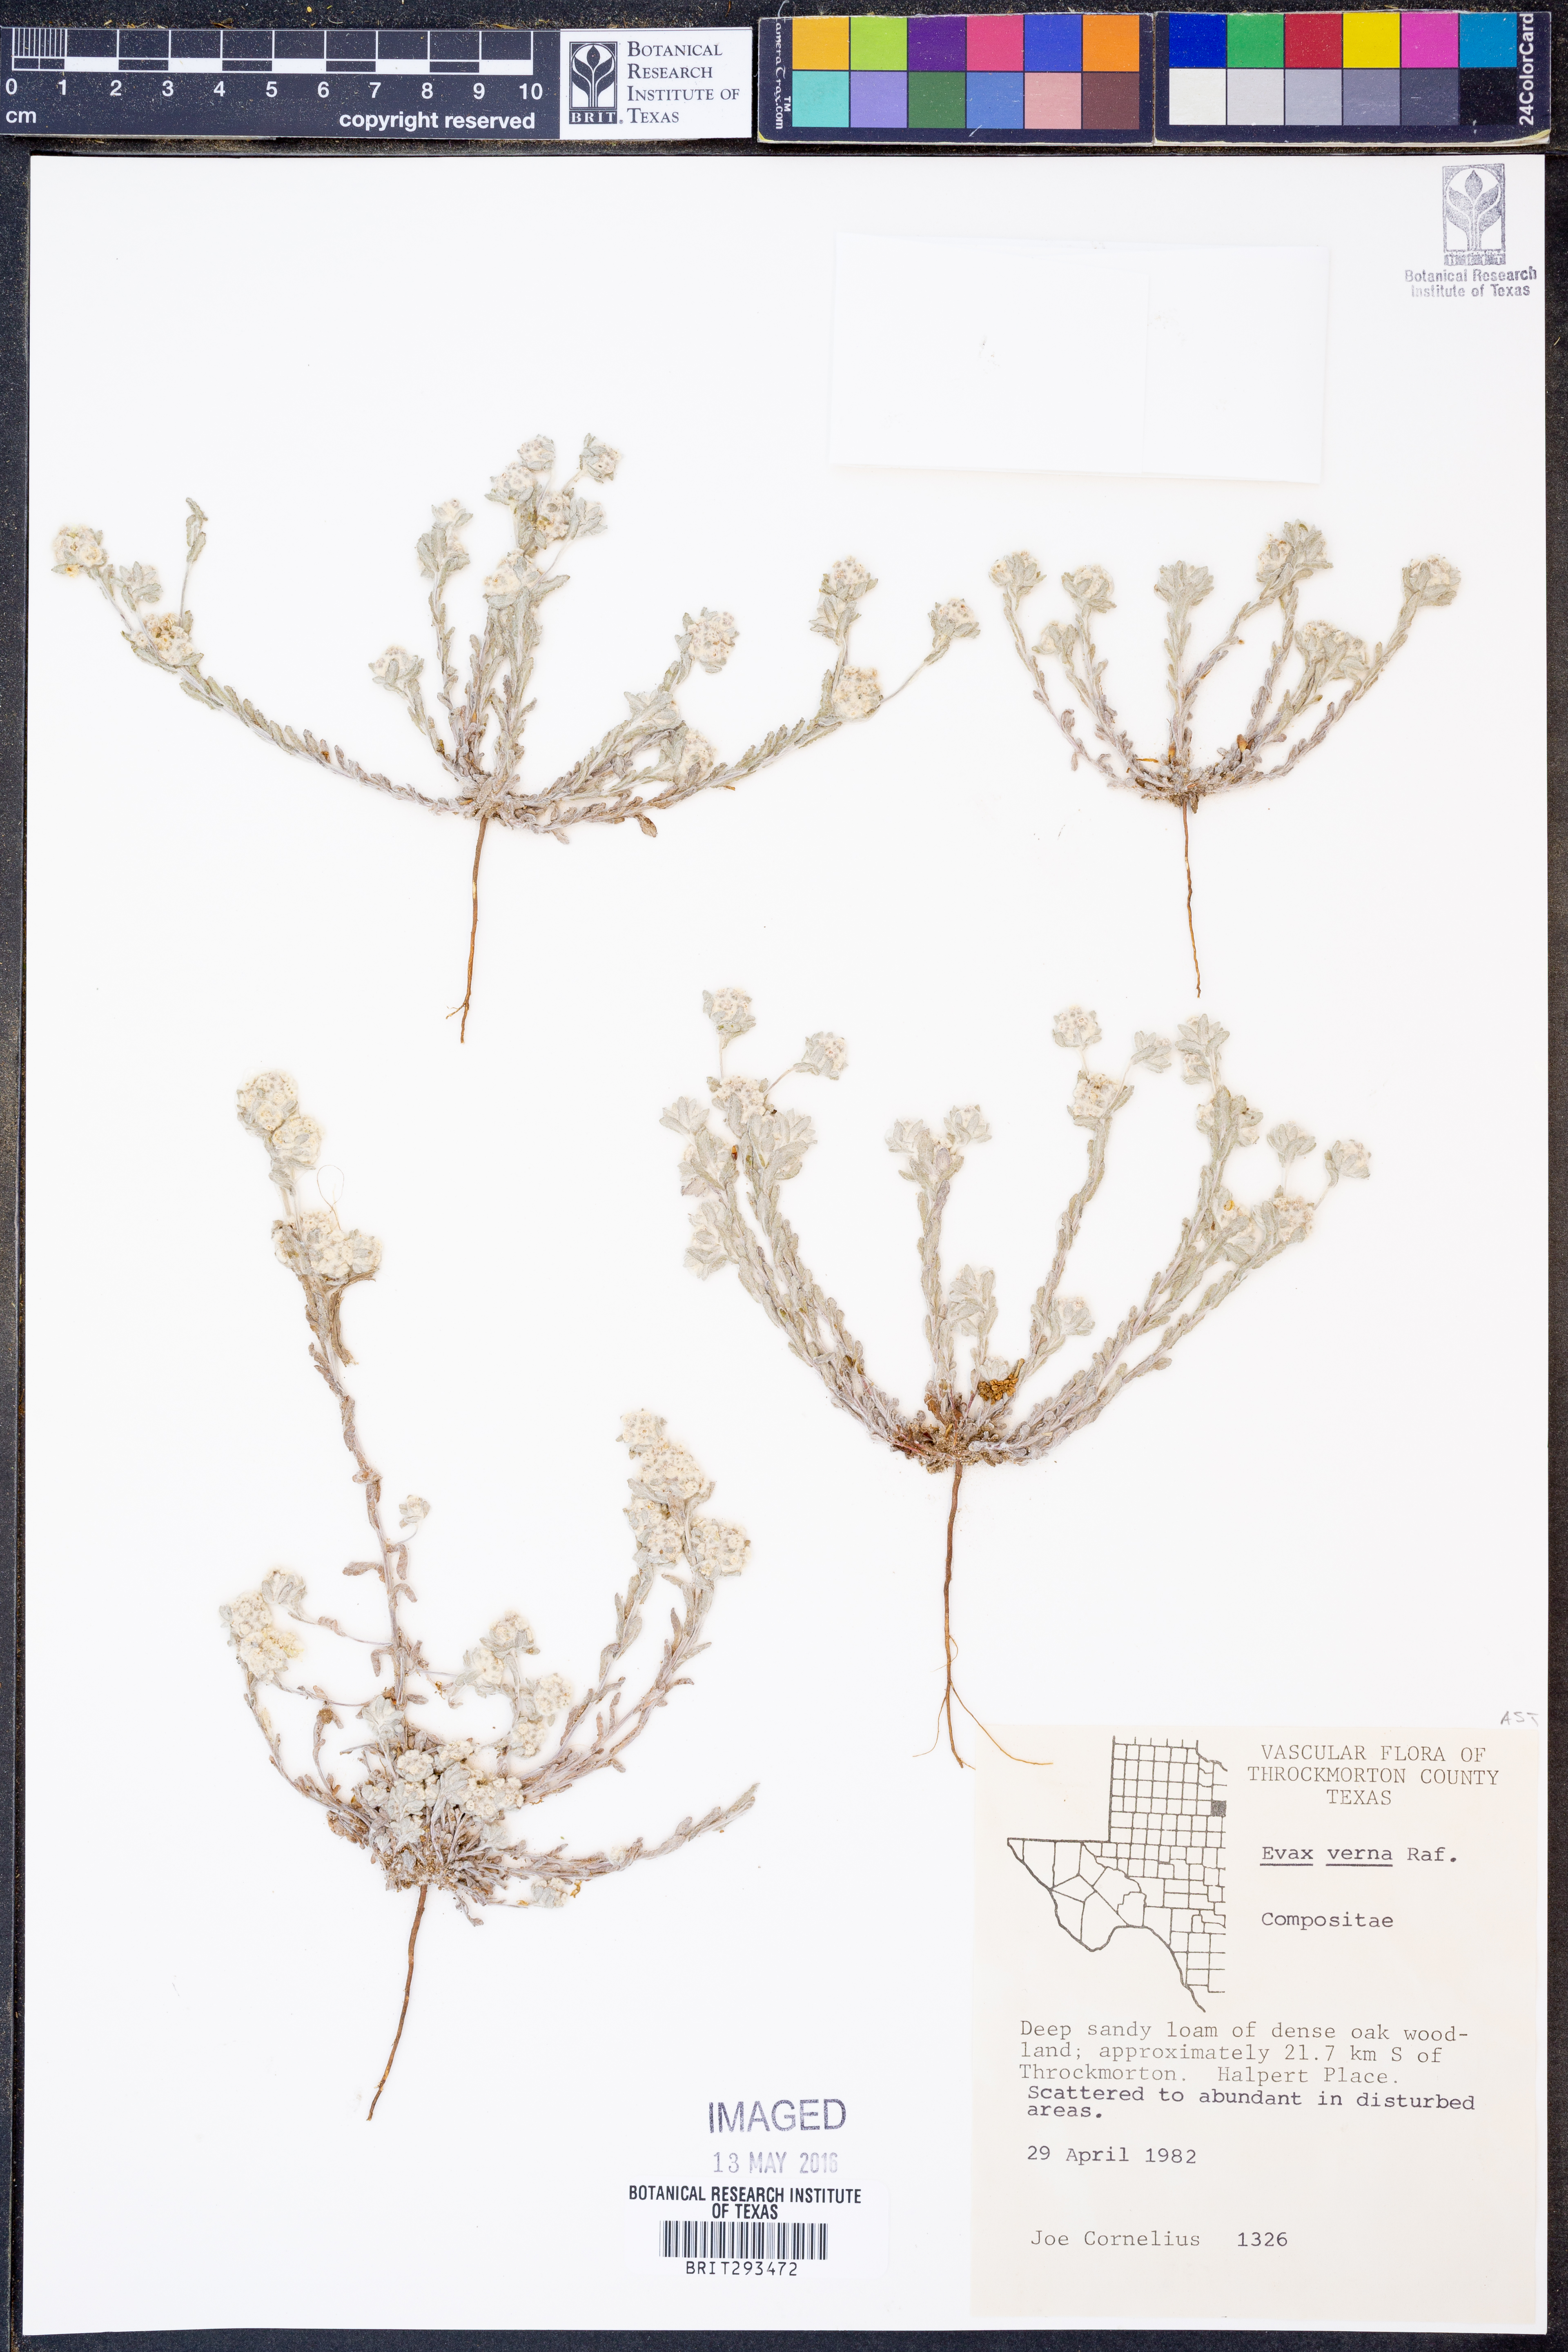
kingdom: Plantae
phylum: Tracheophyta
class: Magnoliopsida
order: Asterales
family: Asteraceae
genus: Diaperia
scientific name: Diaperia verna
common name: Many-stem rabbit-tobacco
